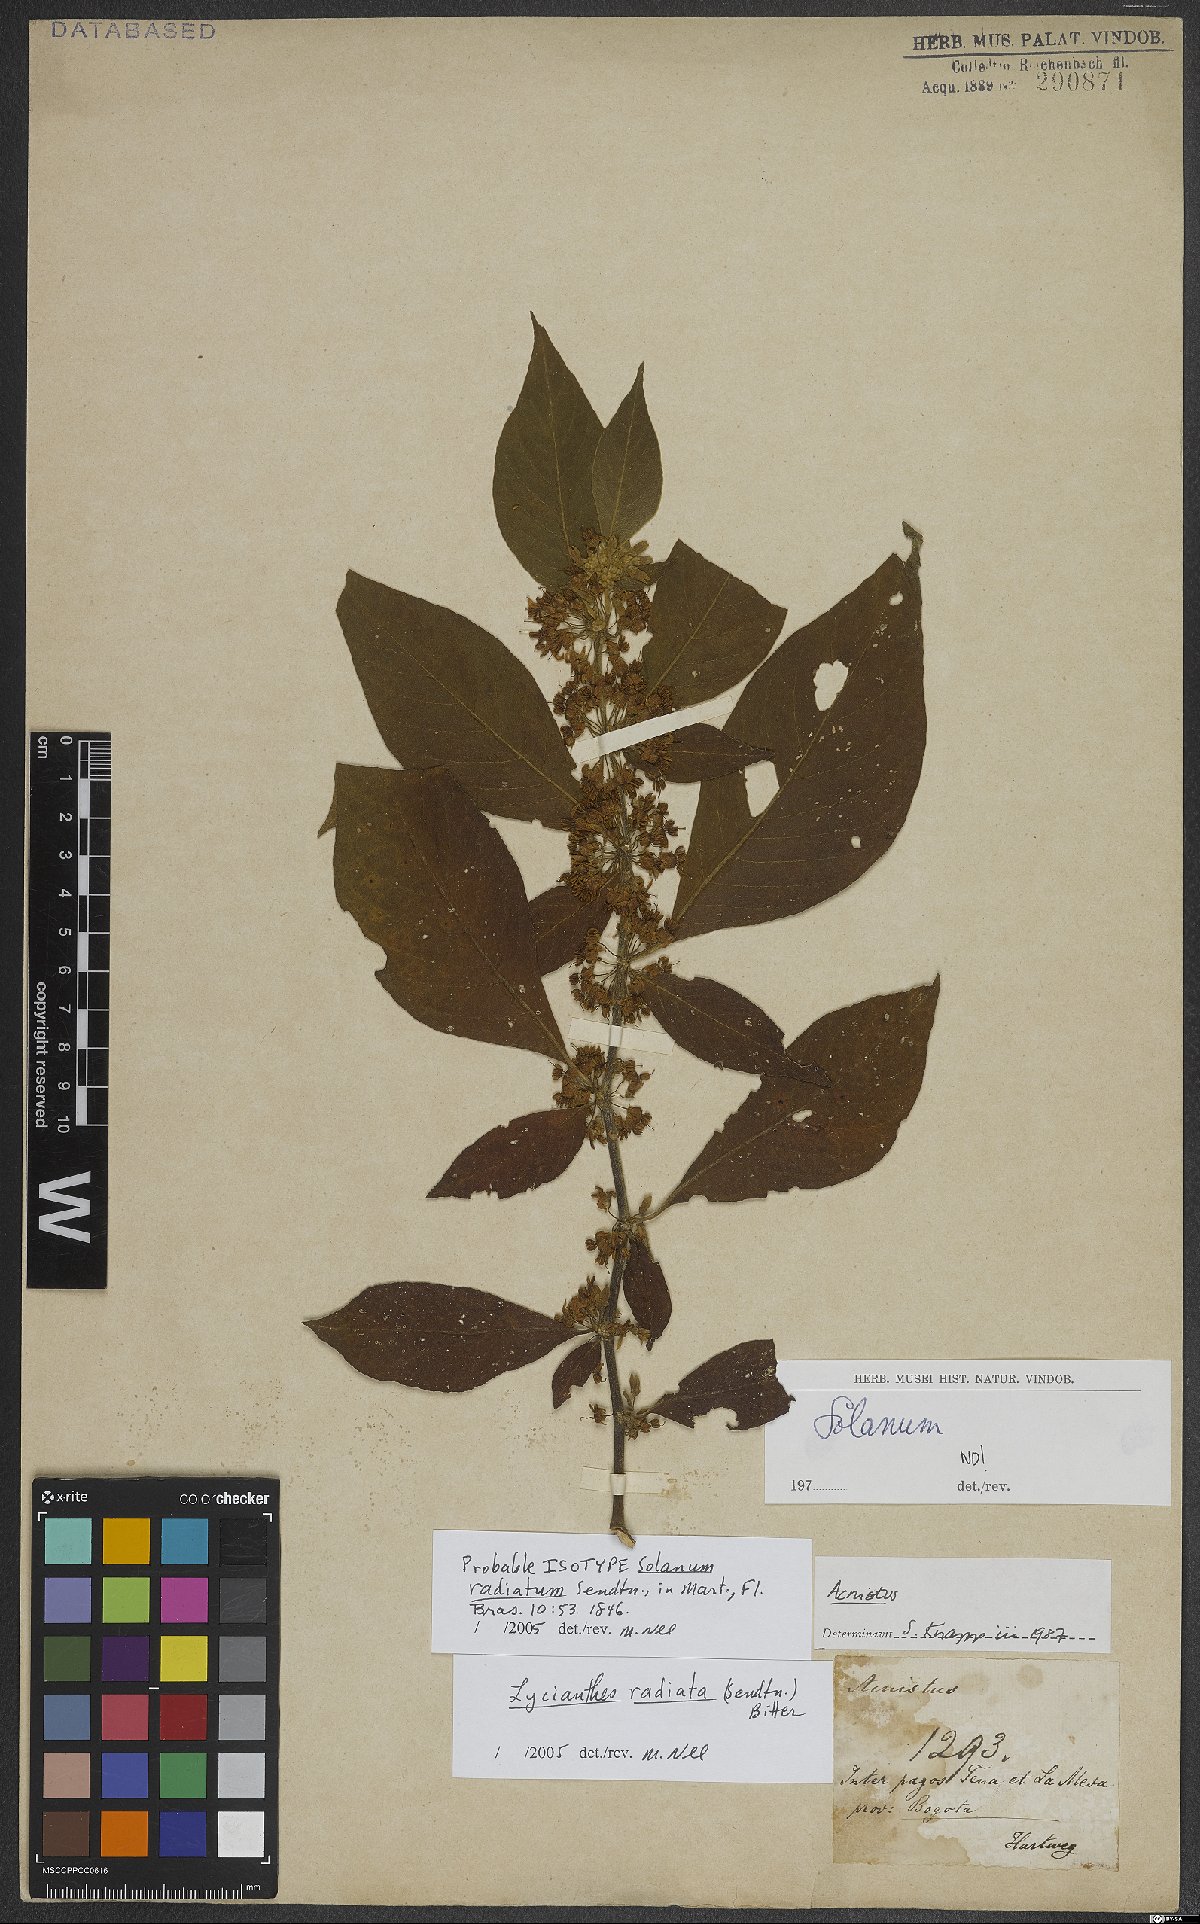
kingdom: Plantae
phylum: Tracheophyta
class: Magnoliopsida
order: Solanales
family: Solanaceae
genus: Lycianthes
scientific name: Lycianthes radiata
